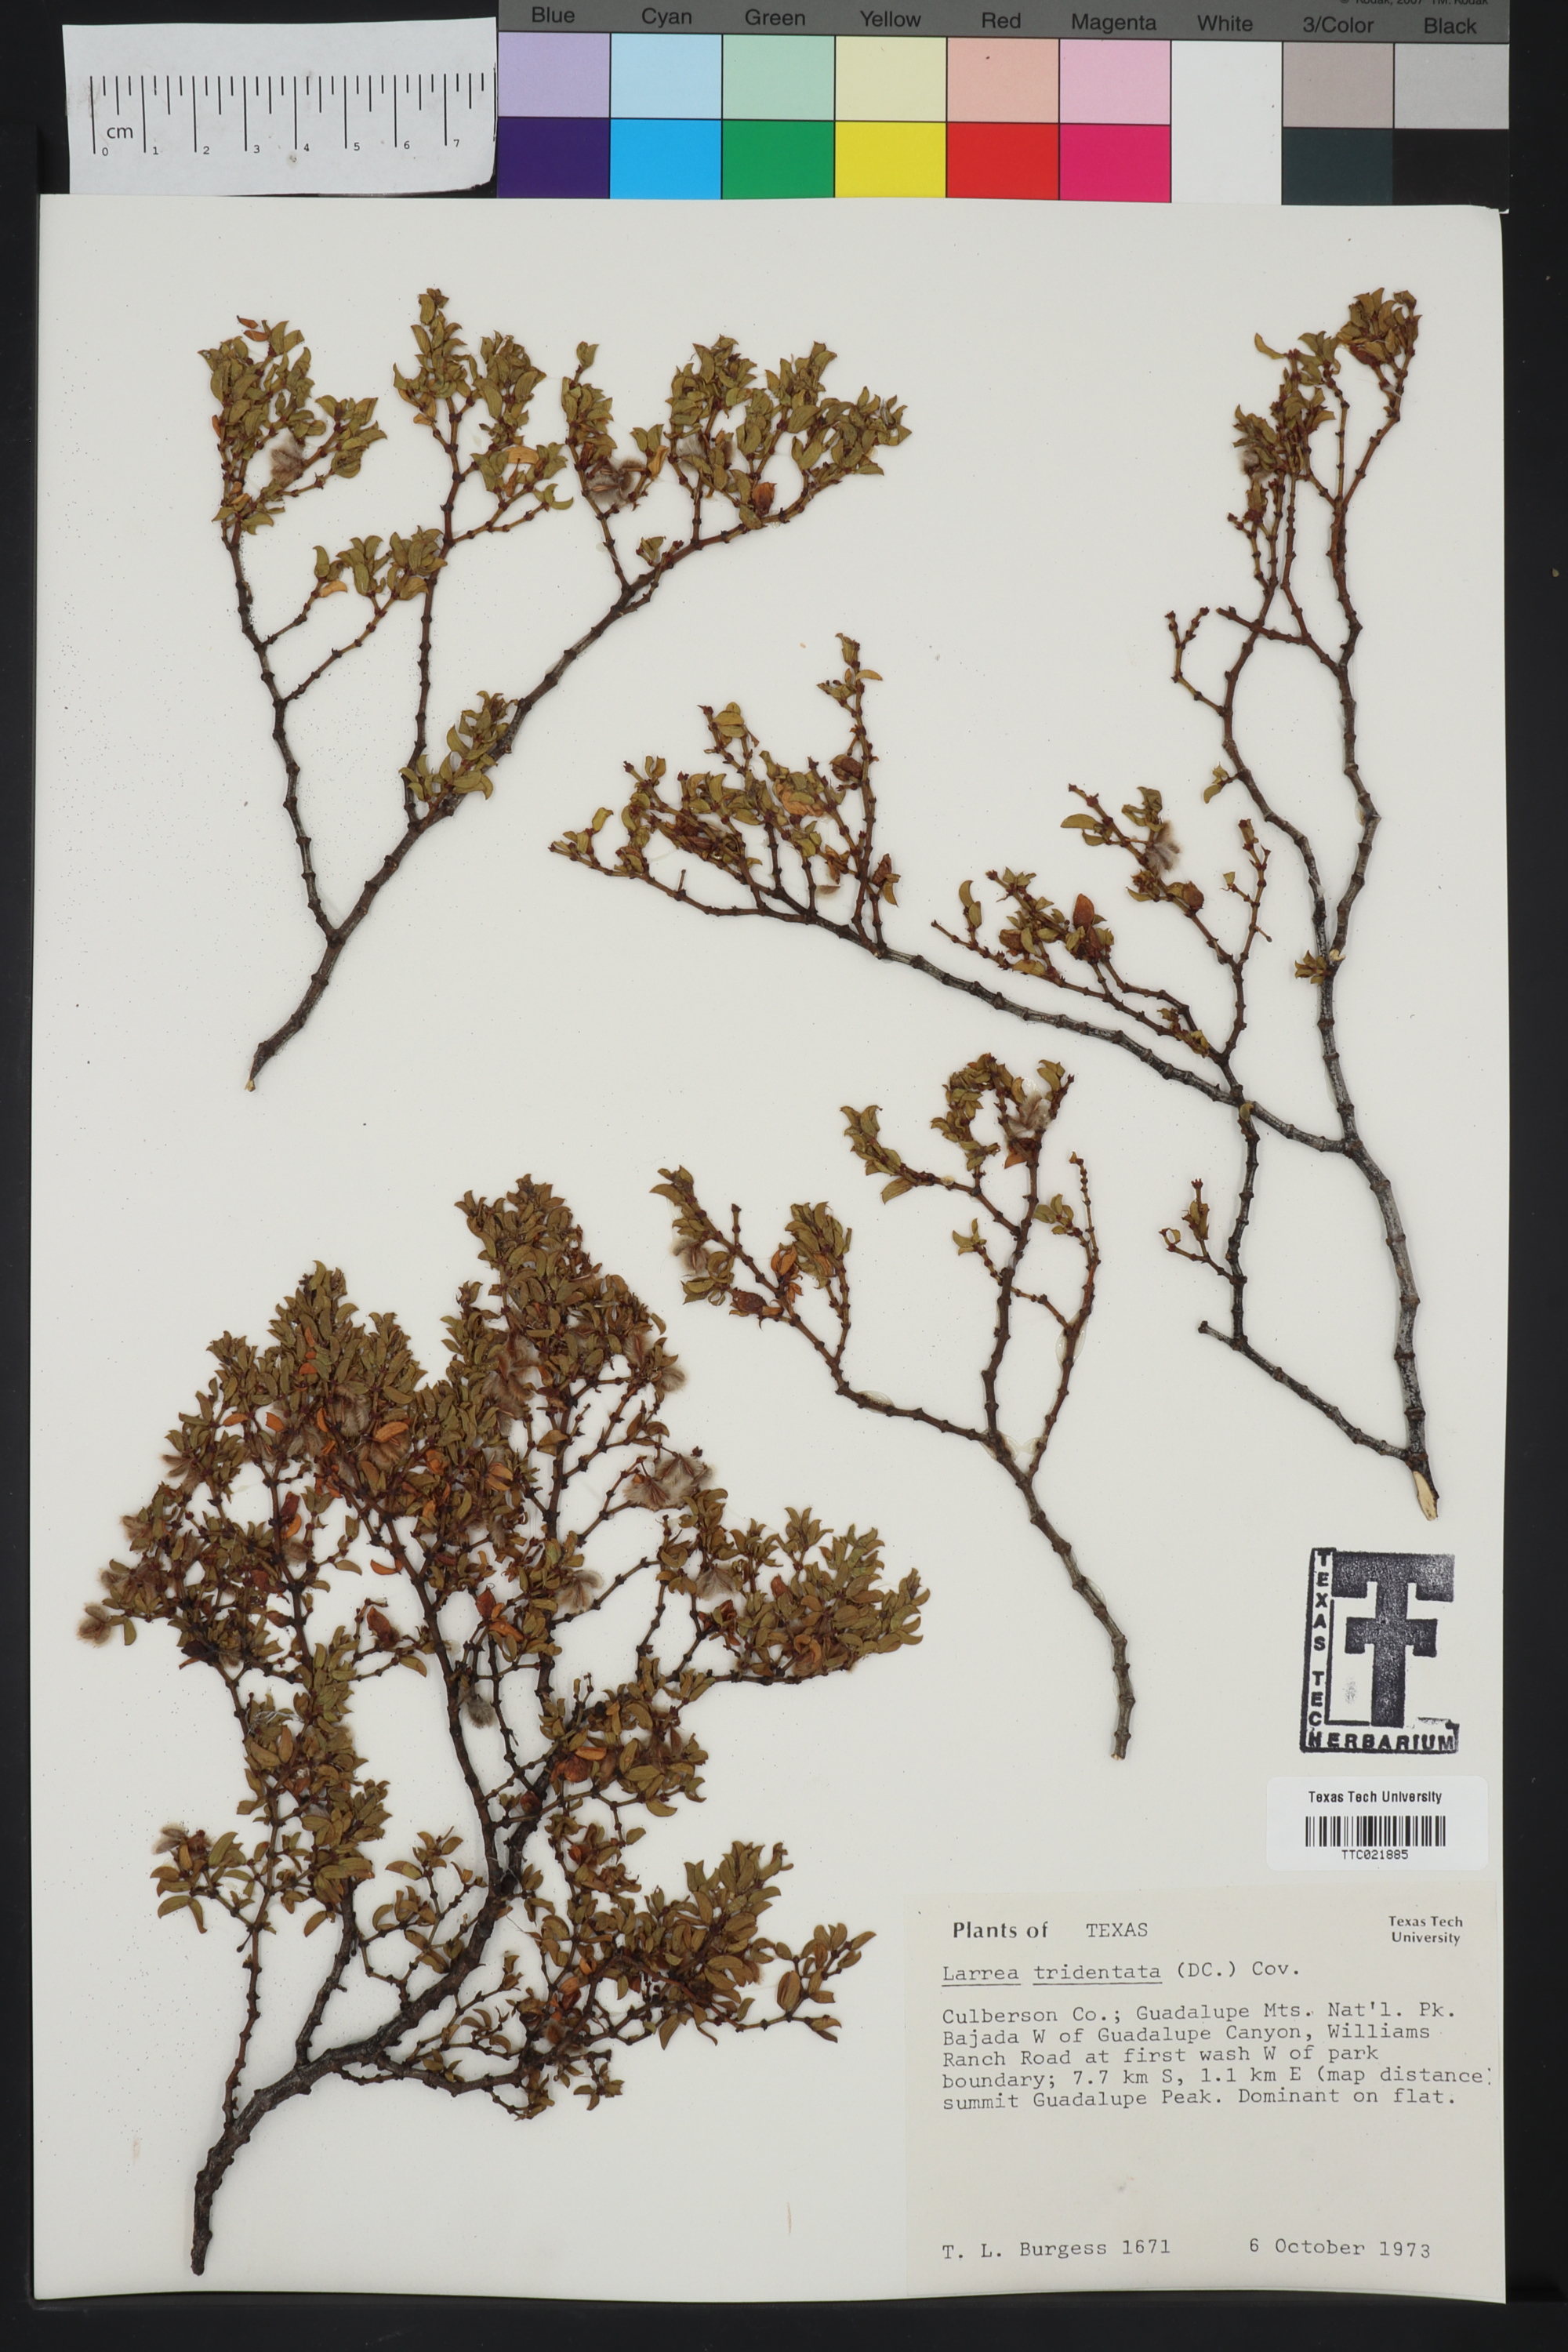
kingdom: Plantae
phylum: Tracheophyta
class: Magnoliopsida
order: Zygophyllales
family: Zygophyllaceae
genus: Larrea
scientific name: Larrea tridentata
